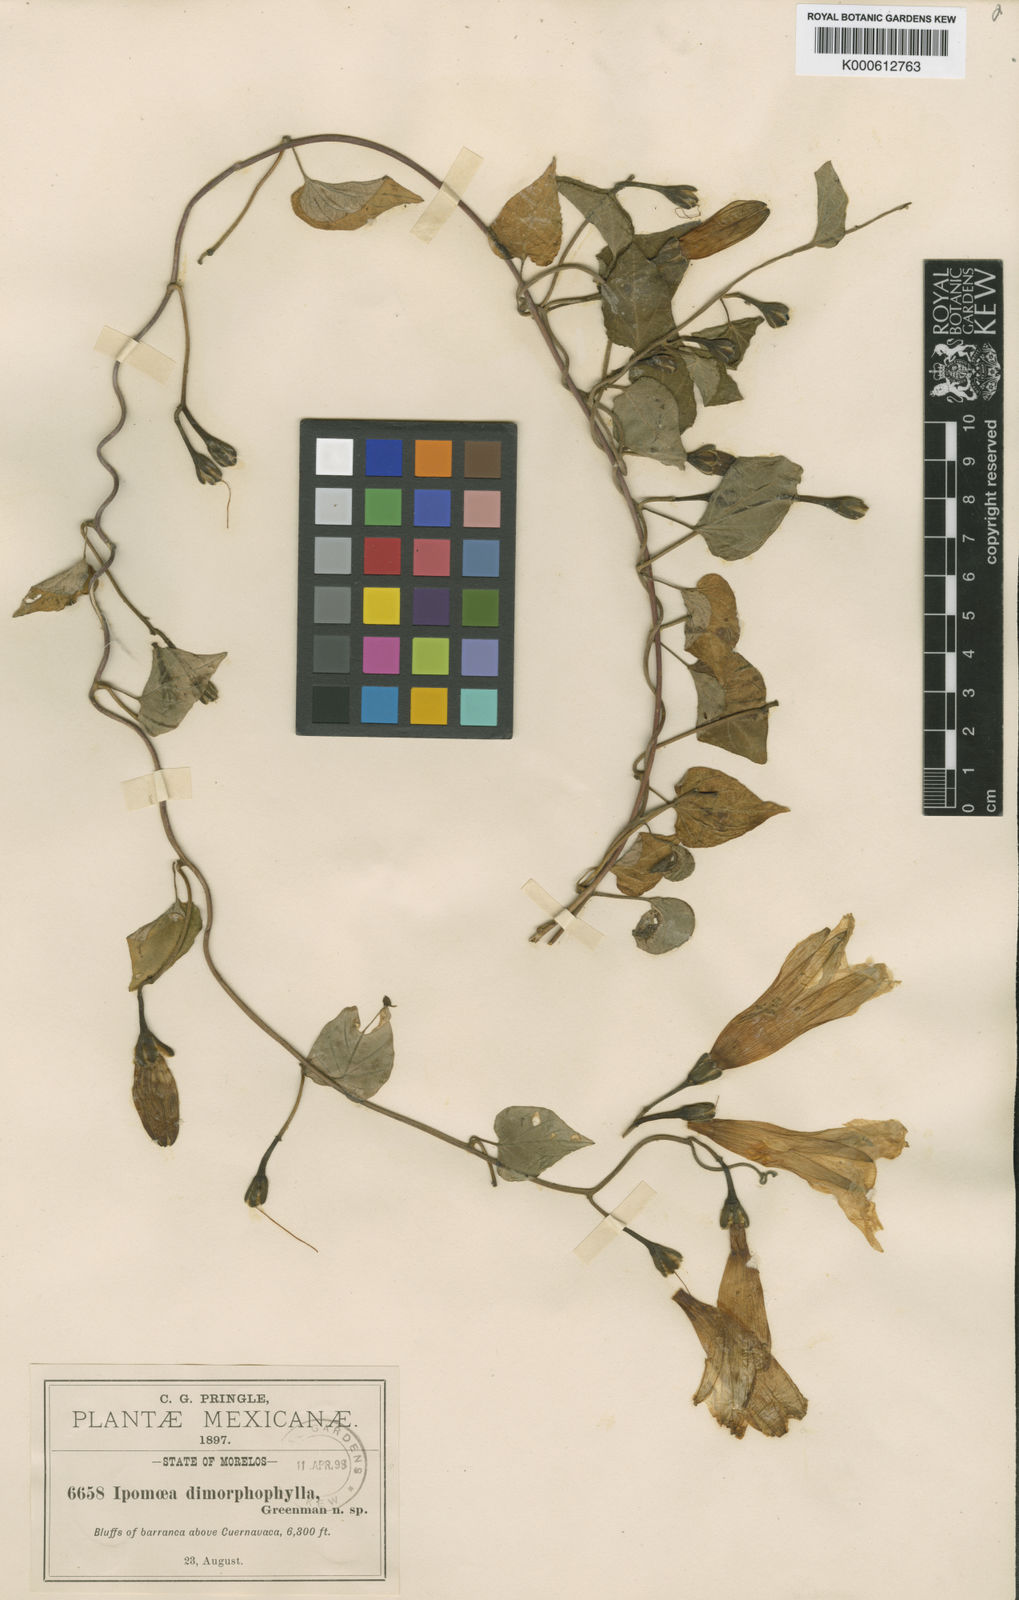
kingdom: Plantae
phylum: Tracheophyta
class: Magnoliopsida
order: Solanales
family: Convolvulaceae
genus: Ipomoea
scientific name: Ipomoea proxima
